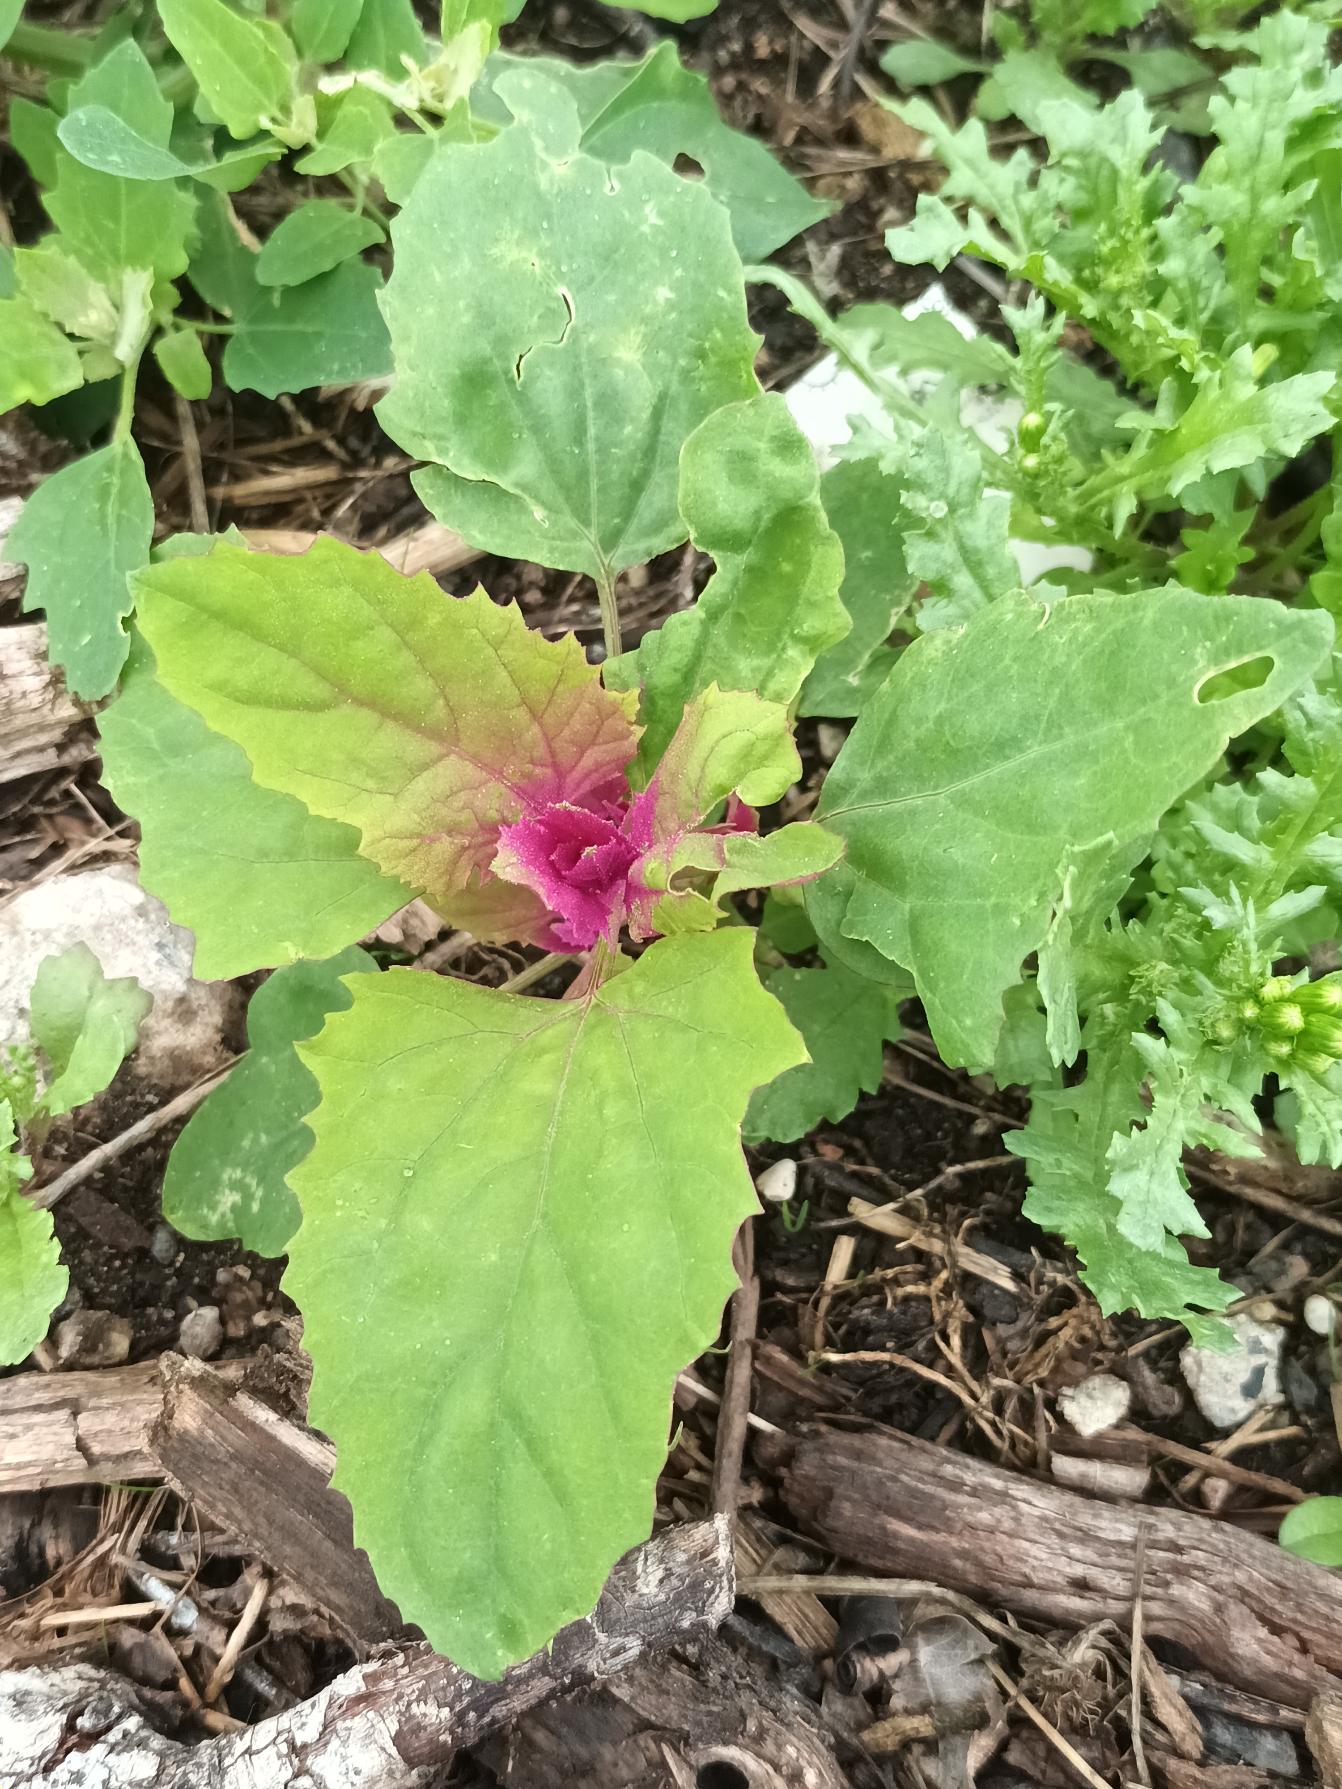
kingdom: Plantae
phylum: Tracheophyta
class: Magnoliopsida
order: Caryophyllales
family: Amaranthaceae
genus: Chenopodium
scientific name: Chenopodium giganteum
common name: Kæmpe-gåsefod
